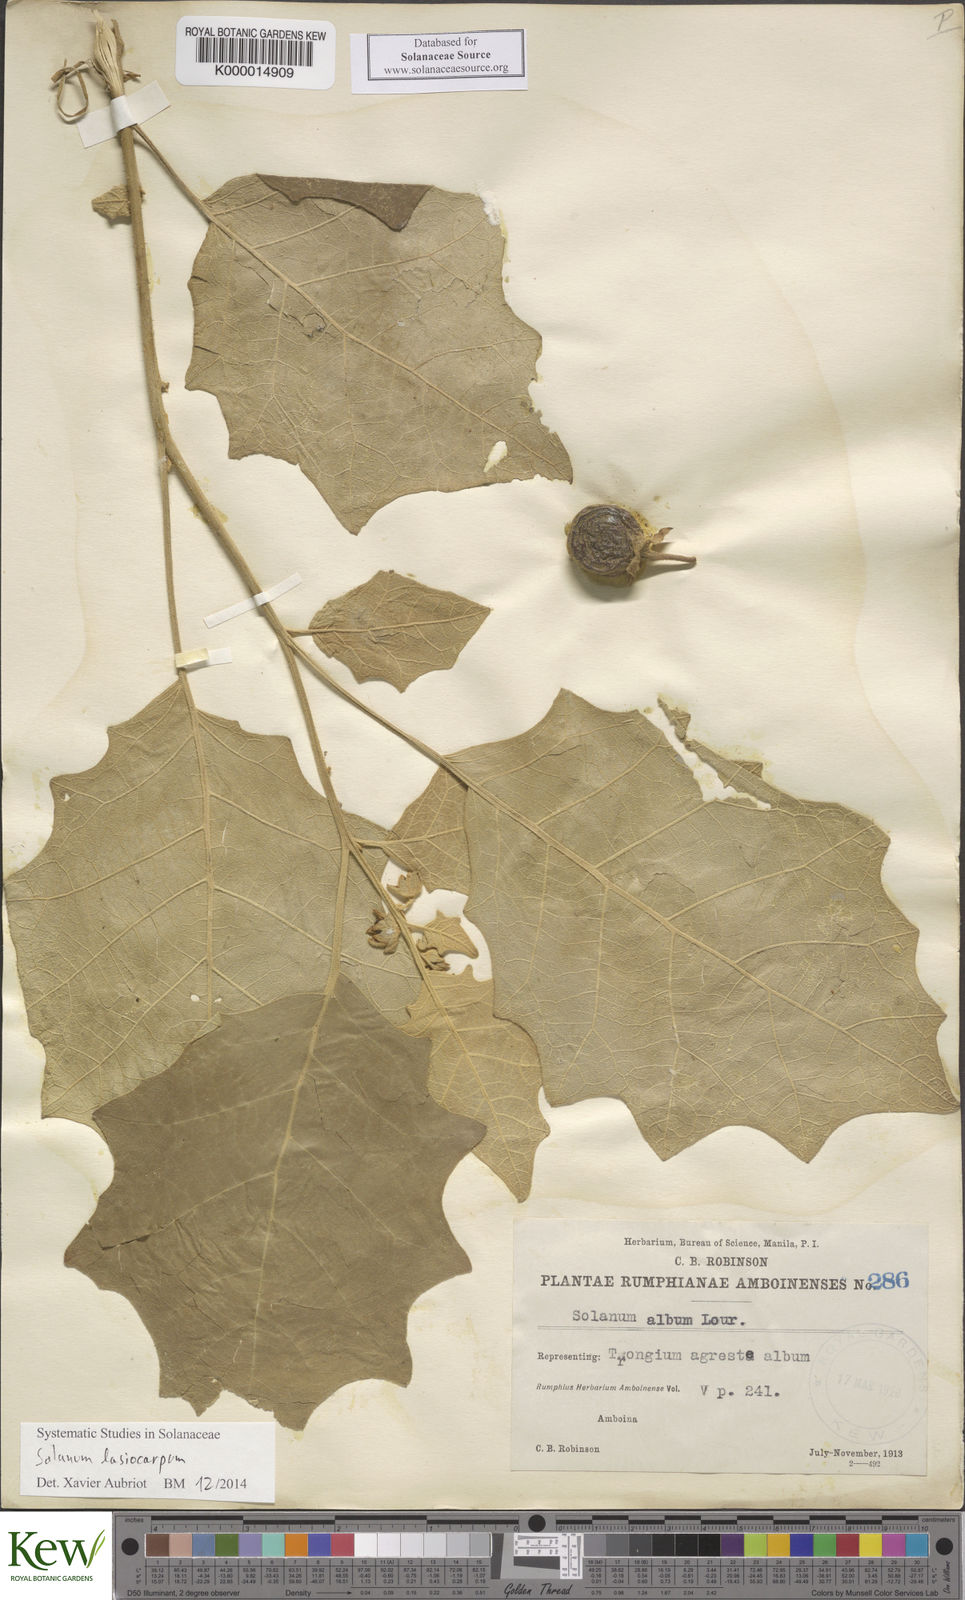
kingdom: Plantae
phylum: Tracheophyta
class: Magnoliopsida
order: Solanales
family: Solanaceae
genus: Solanum
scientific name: Solanum lasiocarpum
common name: Indian nightshade
